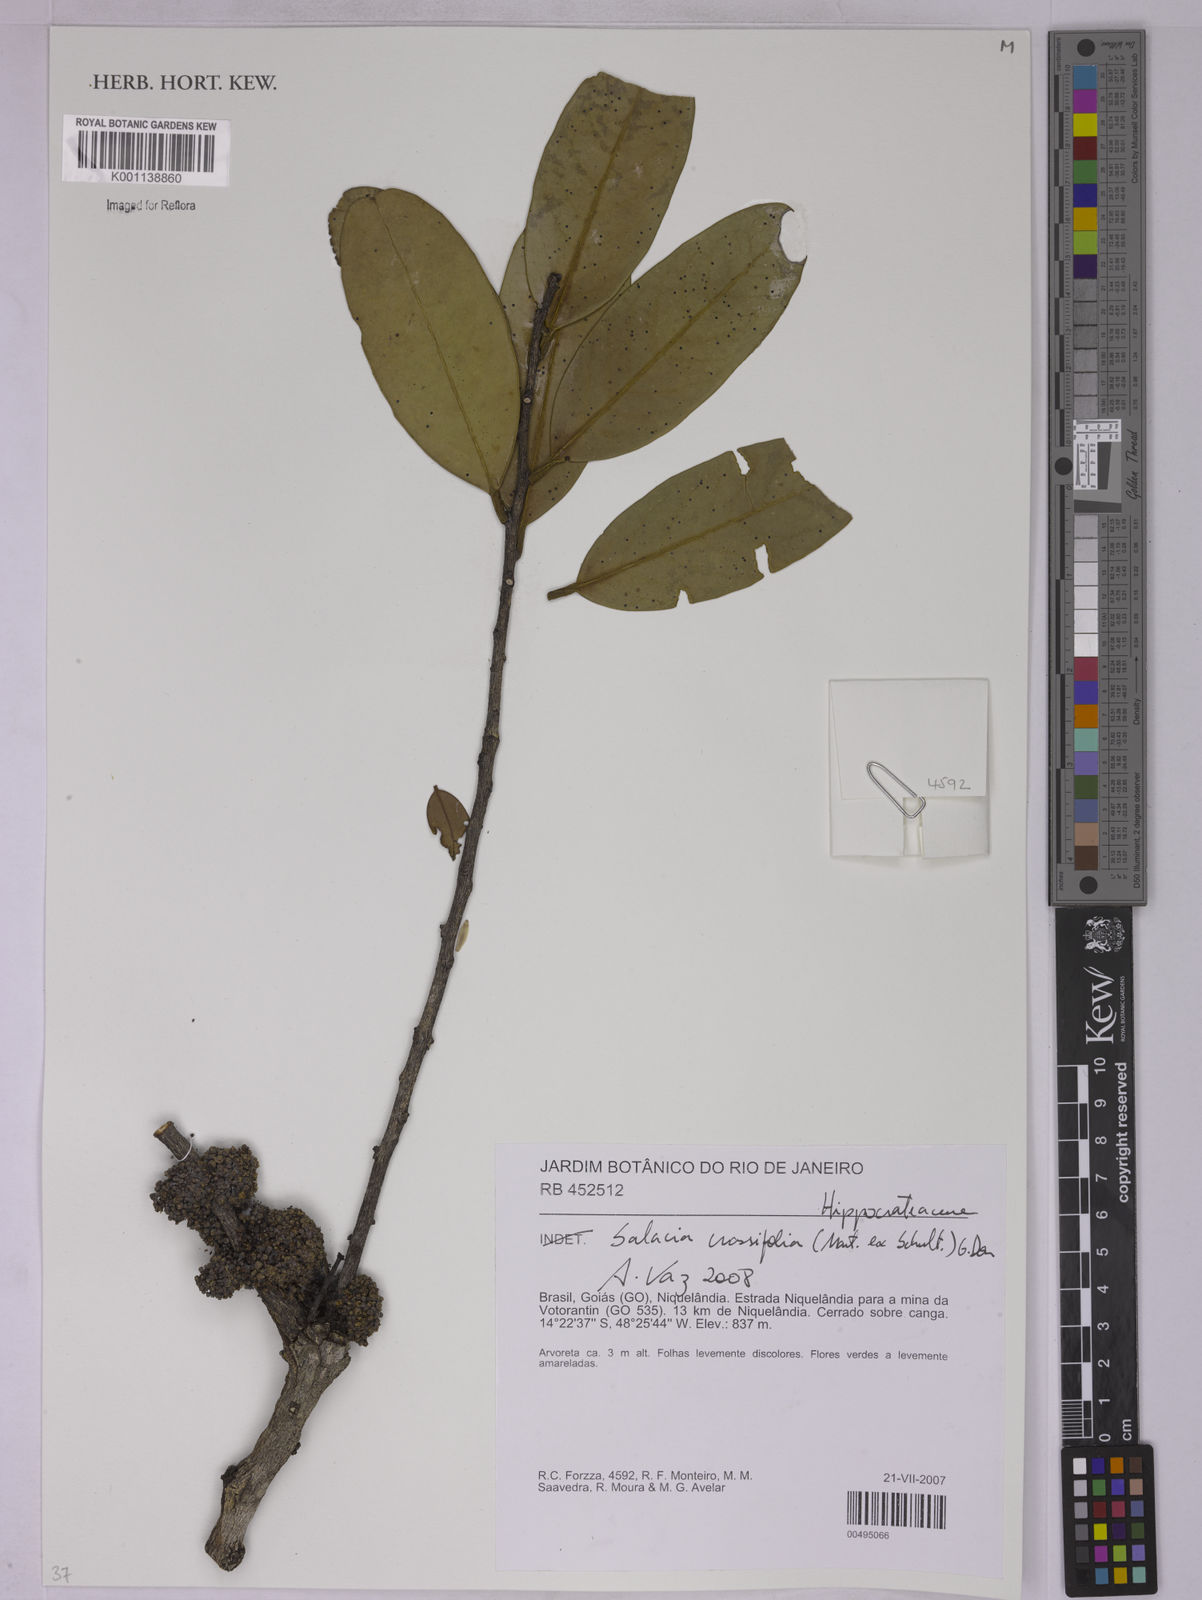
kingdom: Plantae
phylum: Tracheophyta
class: Magnoliopsida
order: Celastrales
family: Celastraceae
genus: Salacia
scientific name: Salacia crassifolia
